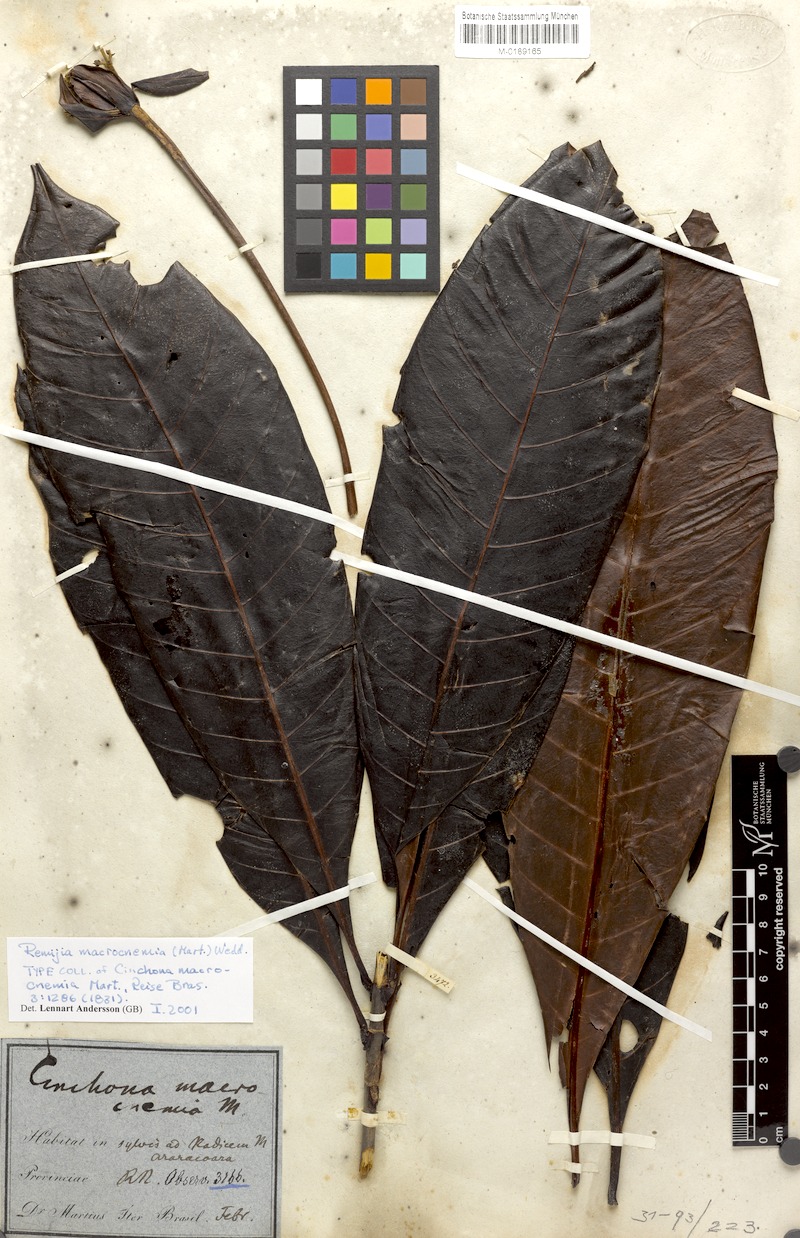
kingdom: Plantae
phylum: Tracheophyta
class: Magnoliopsida
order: Gentianales
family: Rubiaceae
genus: Remijia
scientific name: Remijia macrocnemia
